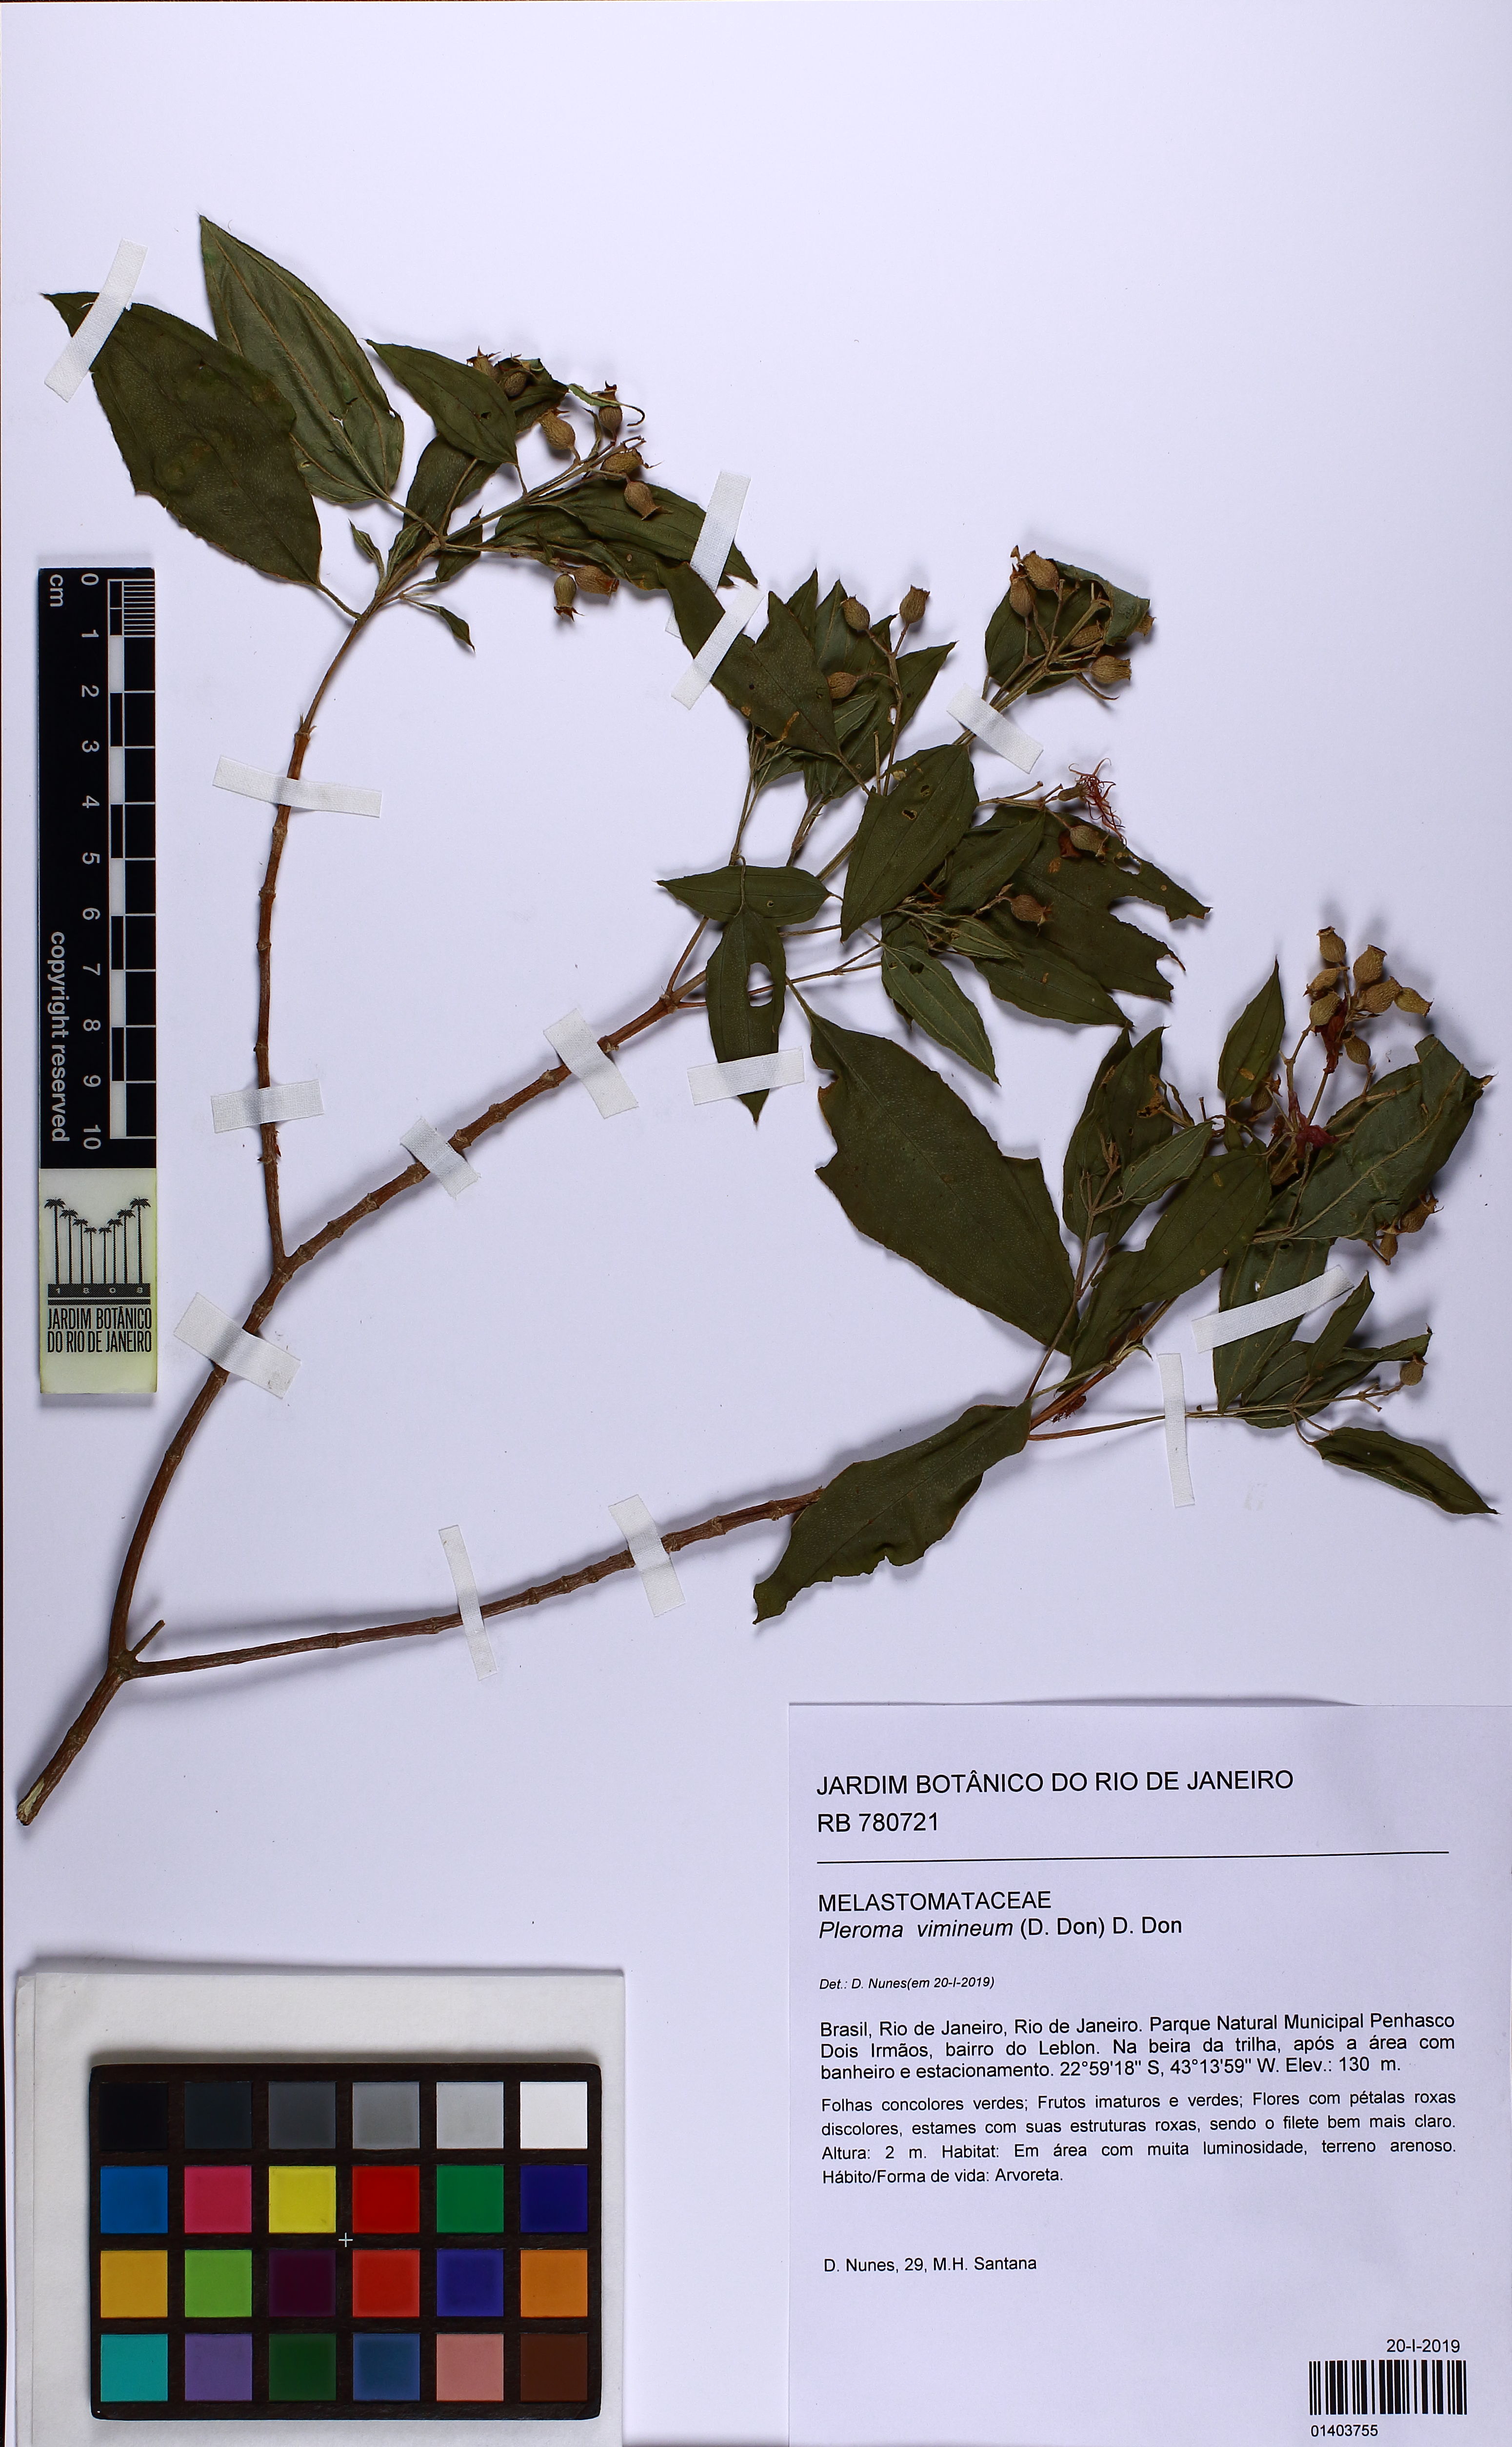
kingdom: Plantae
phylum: Tracheophyta
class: Magnoliopsida
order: Myrtales
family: Melastomataceae
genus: Pleroma
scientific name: Pleroma vimineum
